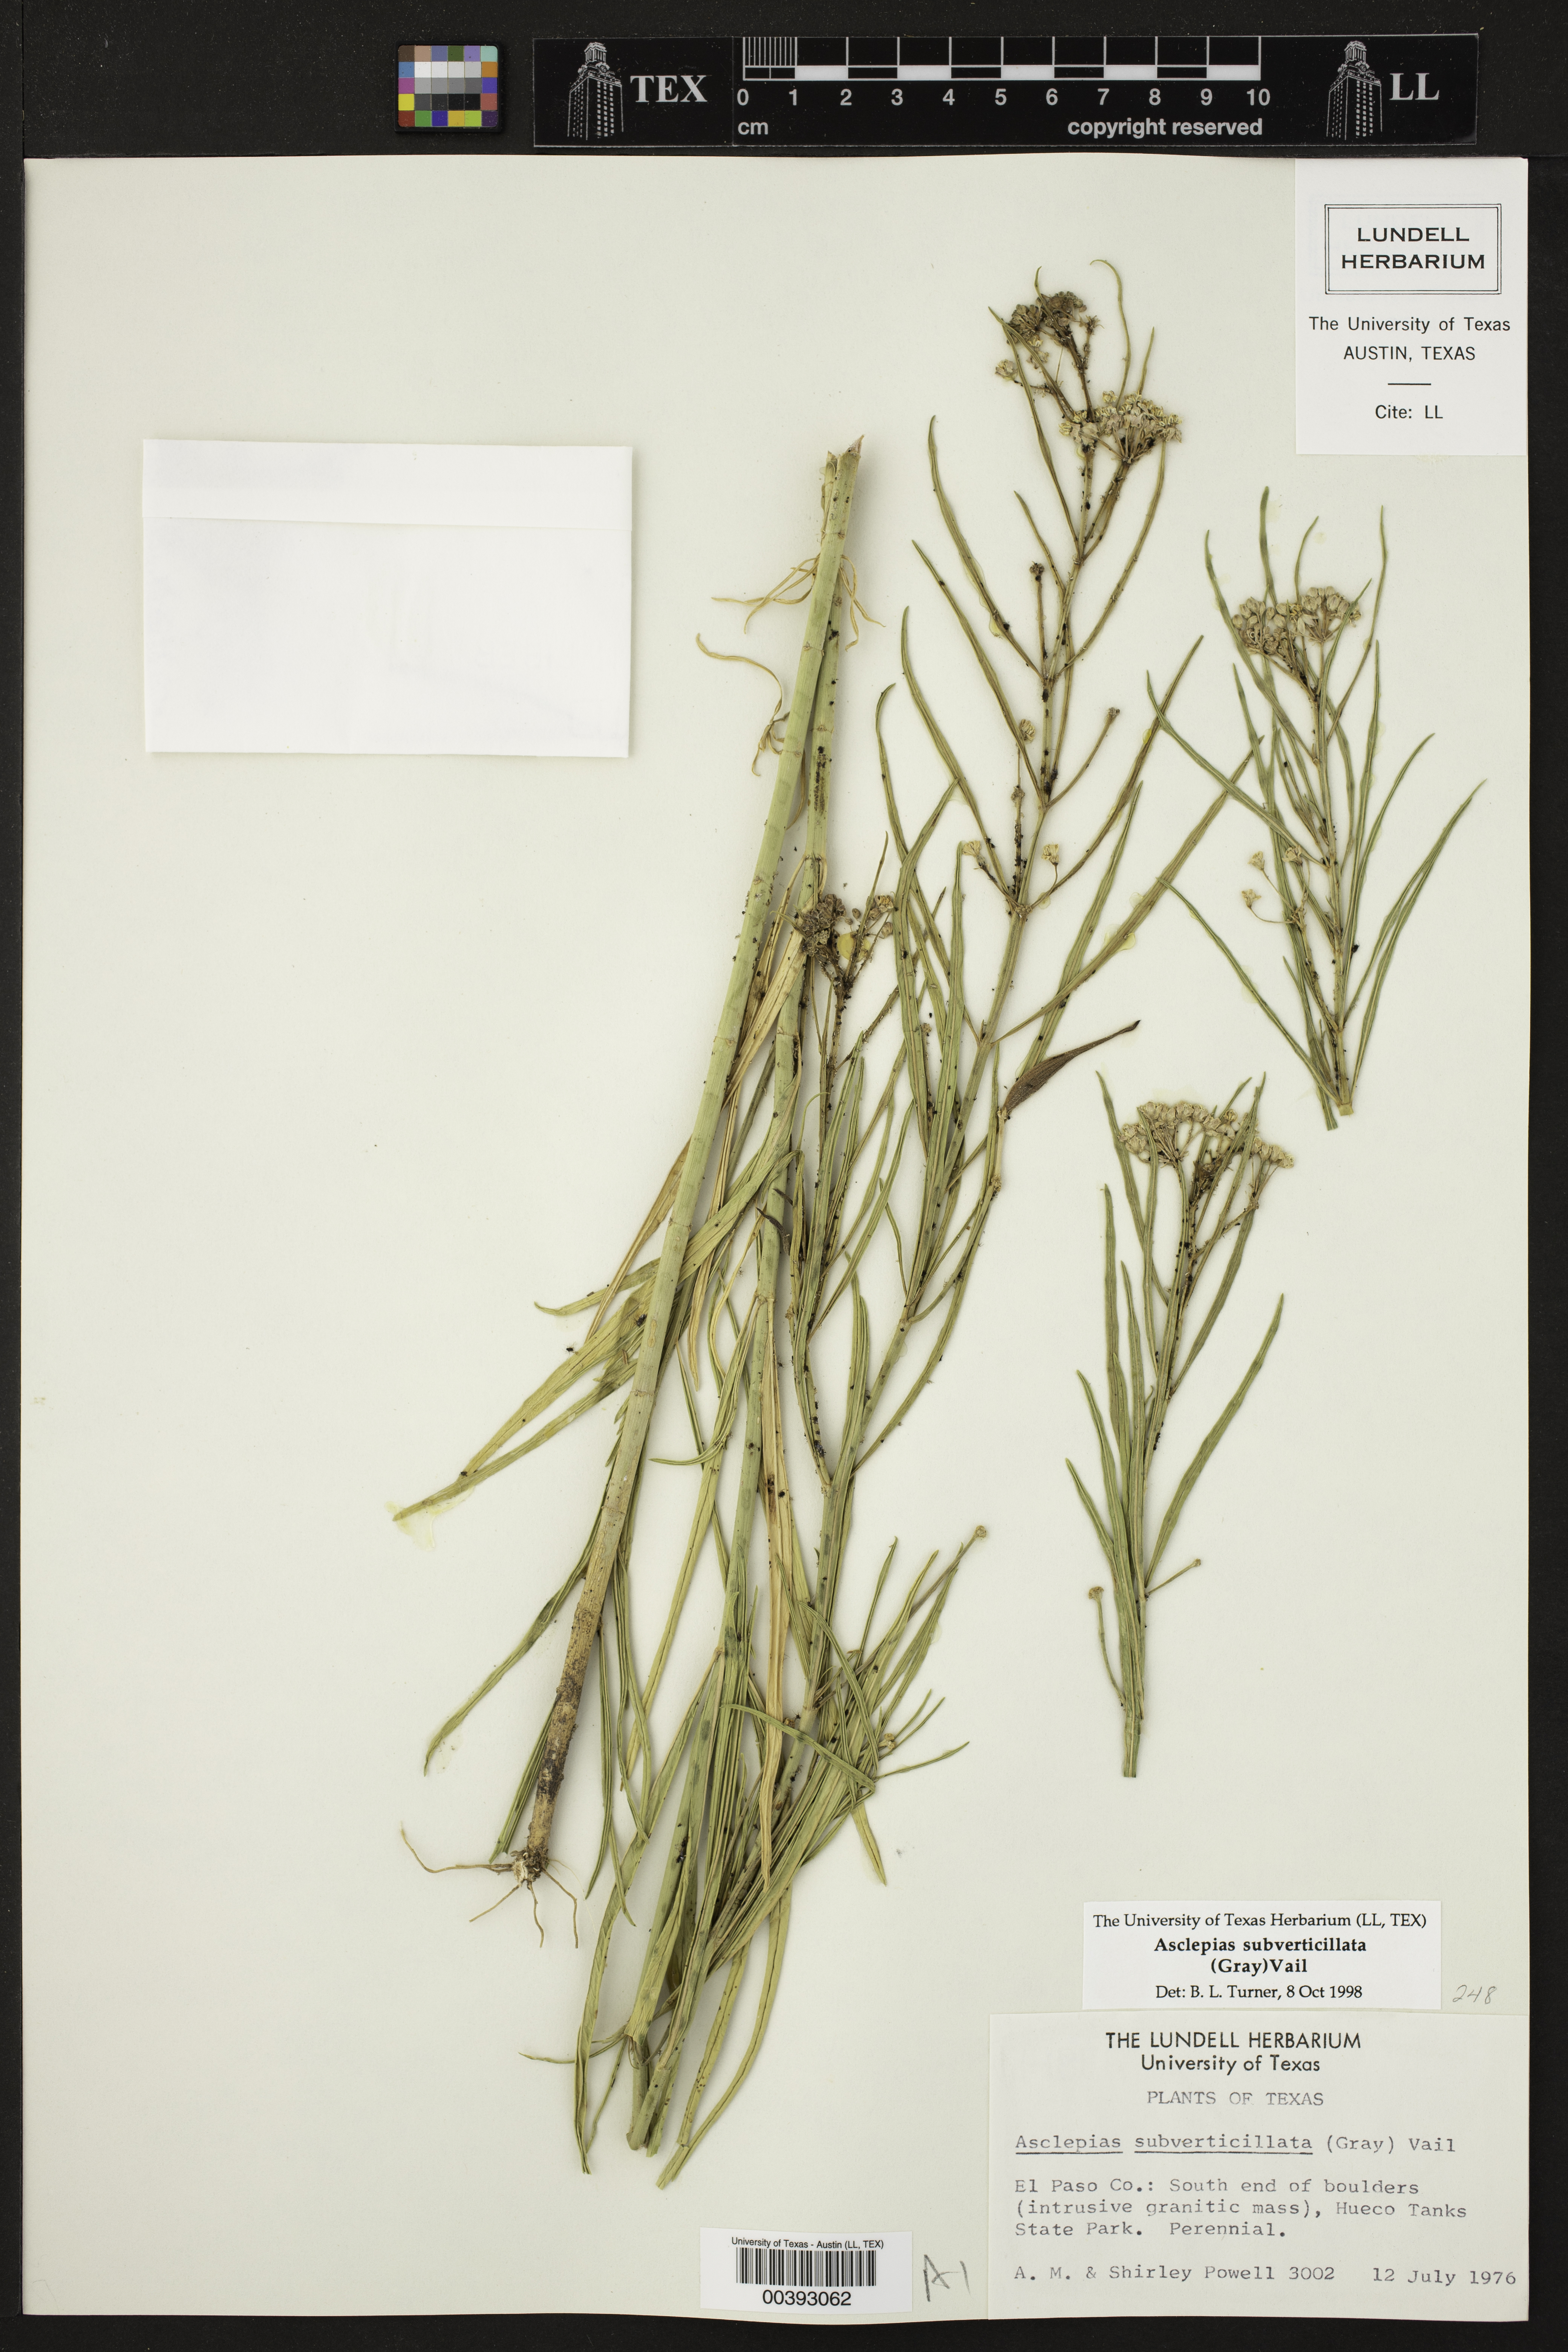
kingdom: Plantae
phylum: Tracheophyta
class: Magnoliopsida
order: Gentianales
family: Apocynaceae
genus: Asclepias
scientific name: Asclepias subverticillata
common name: Horsetail milkweed
